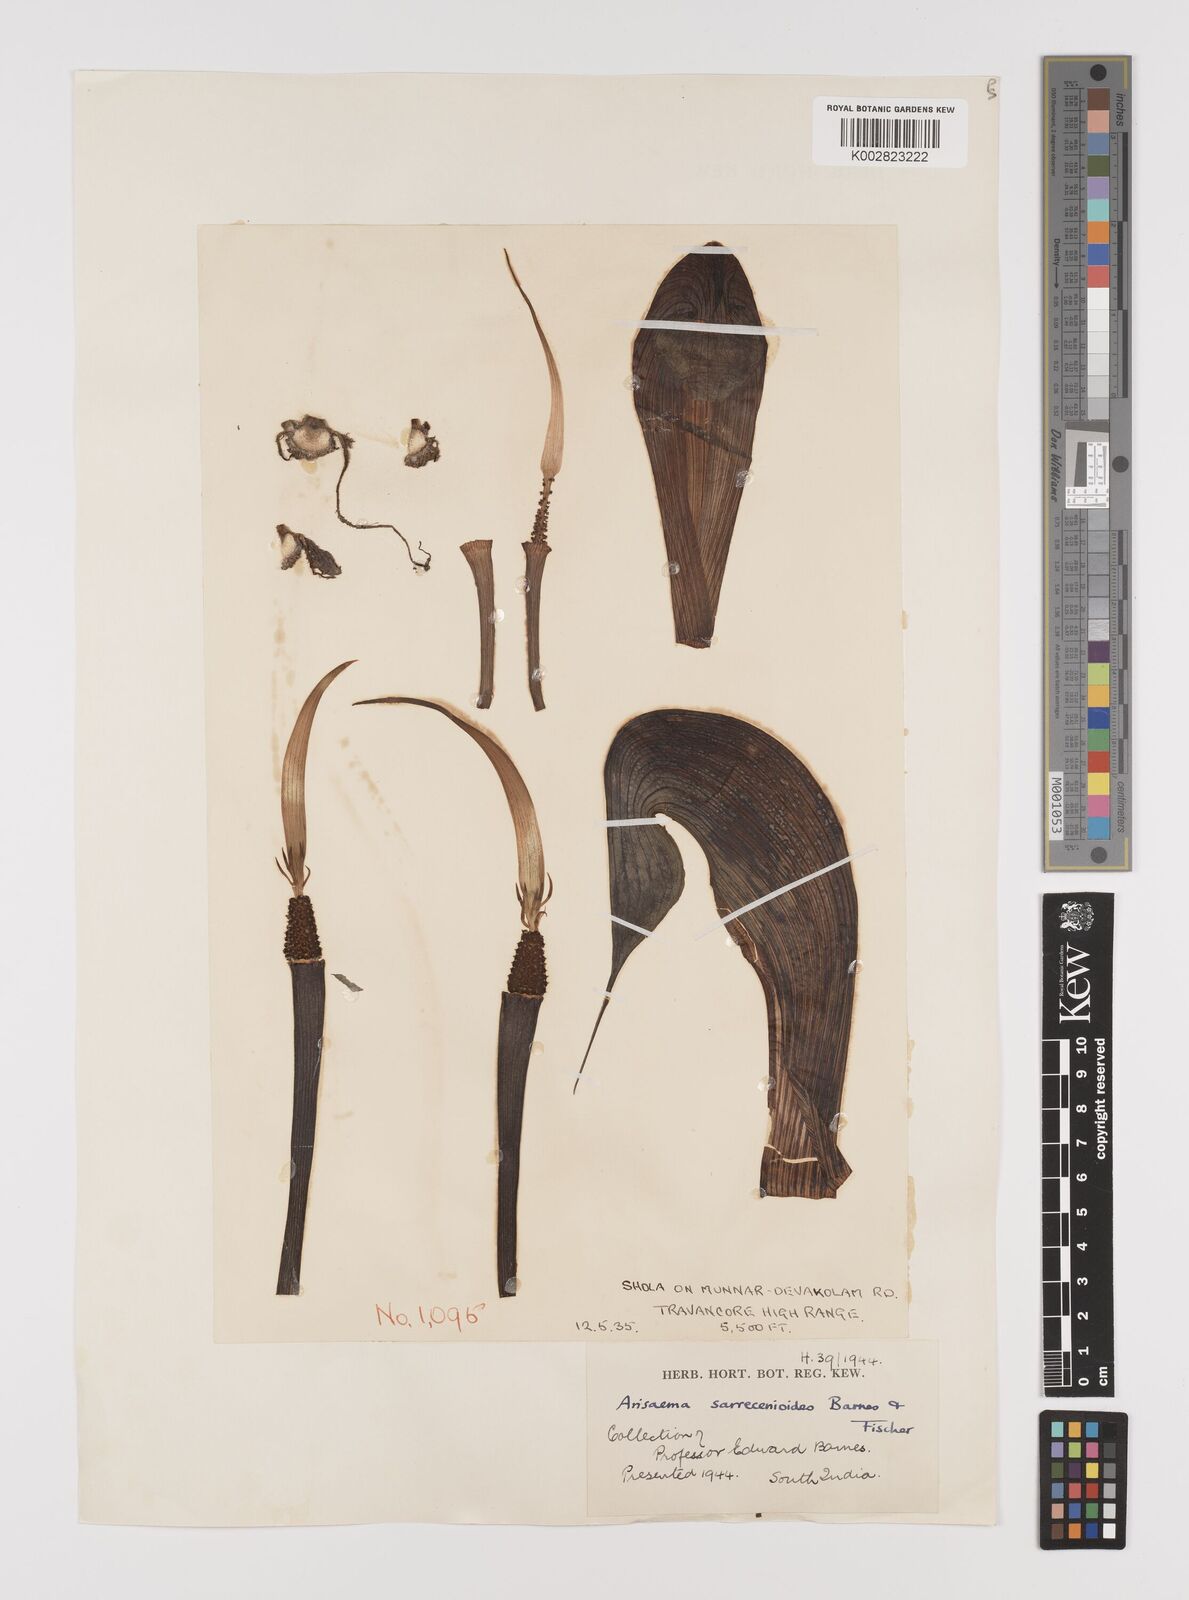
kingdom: Plantae
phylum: Tracheophyta
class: Liliopsida
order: Alismatales
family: Araceae
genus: Arisaema
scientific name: Arisaema sarracenioides
